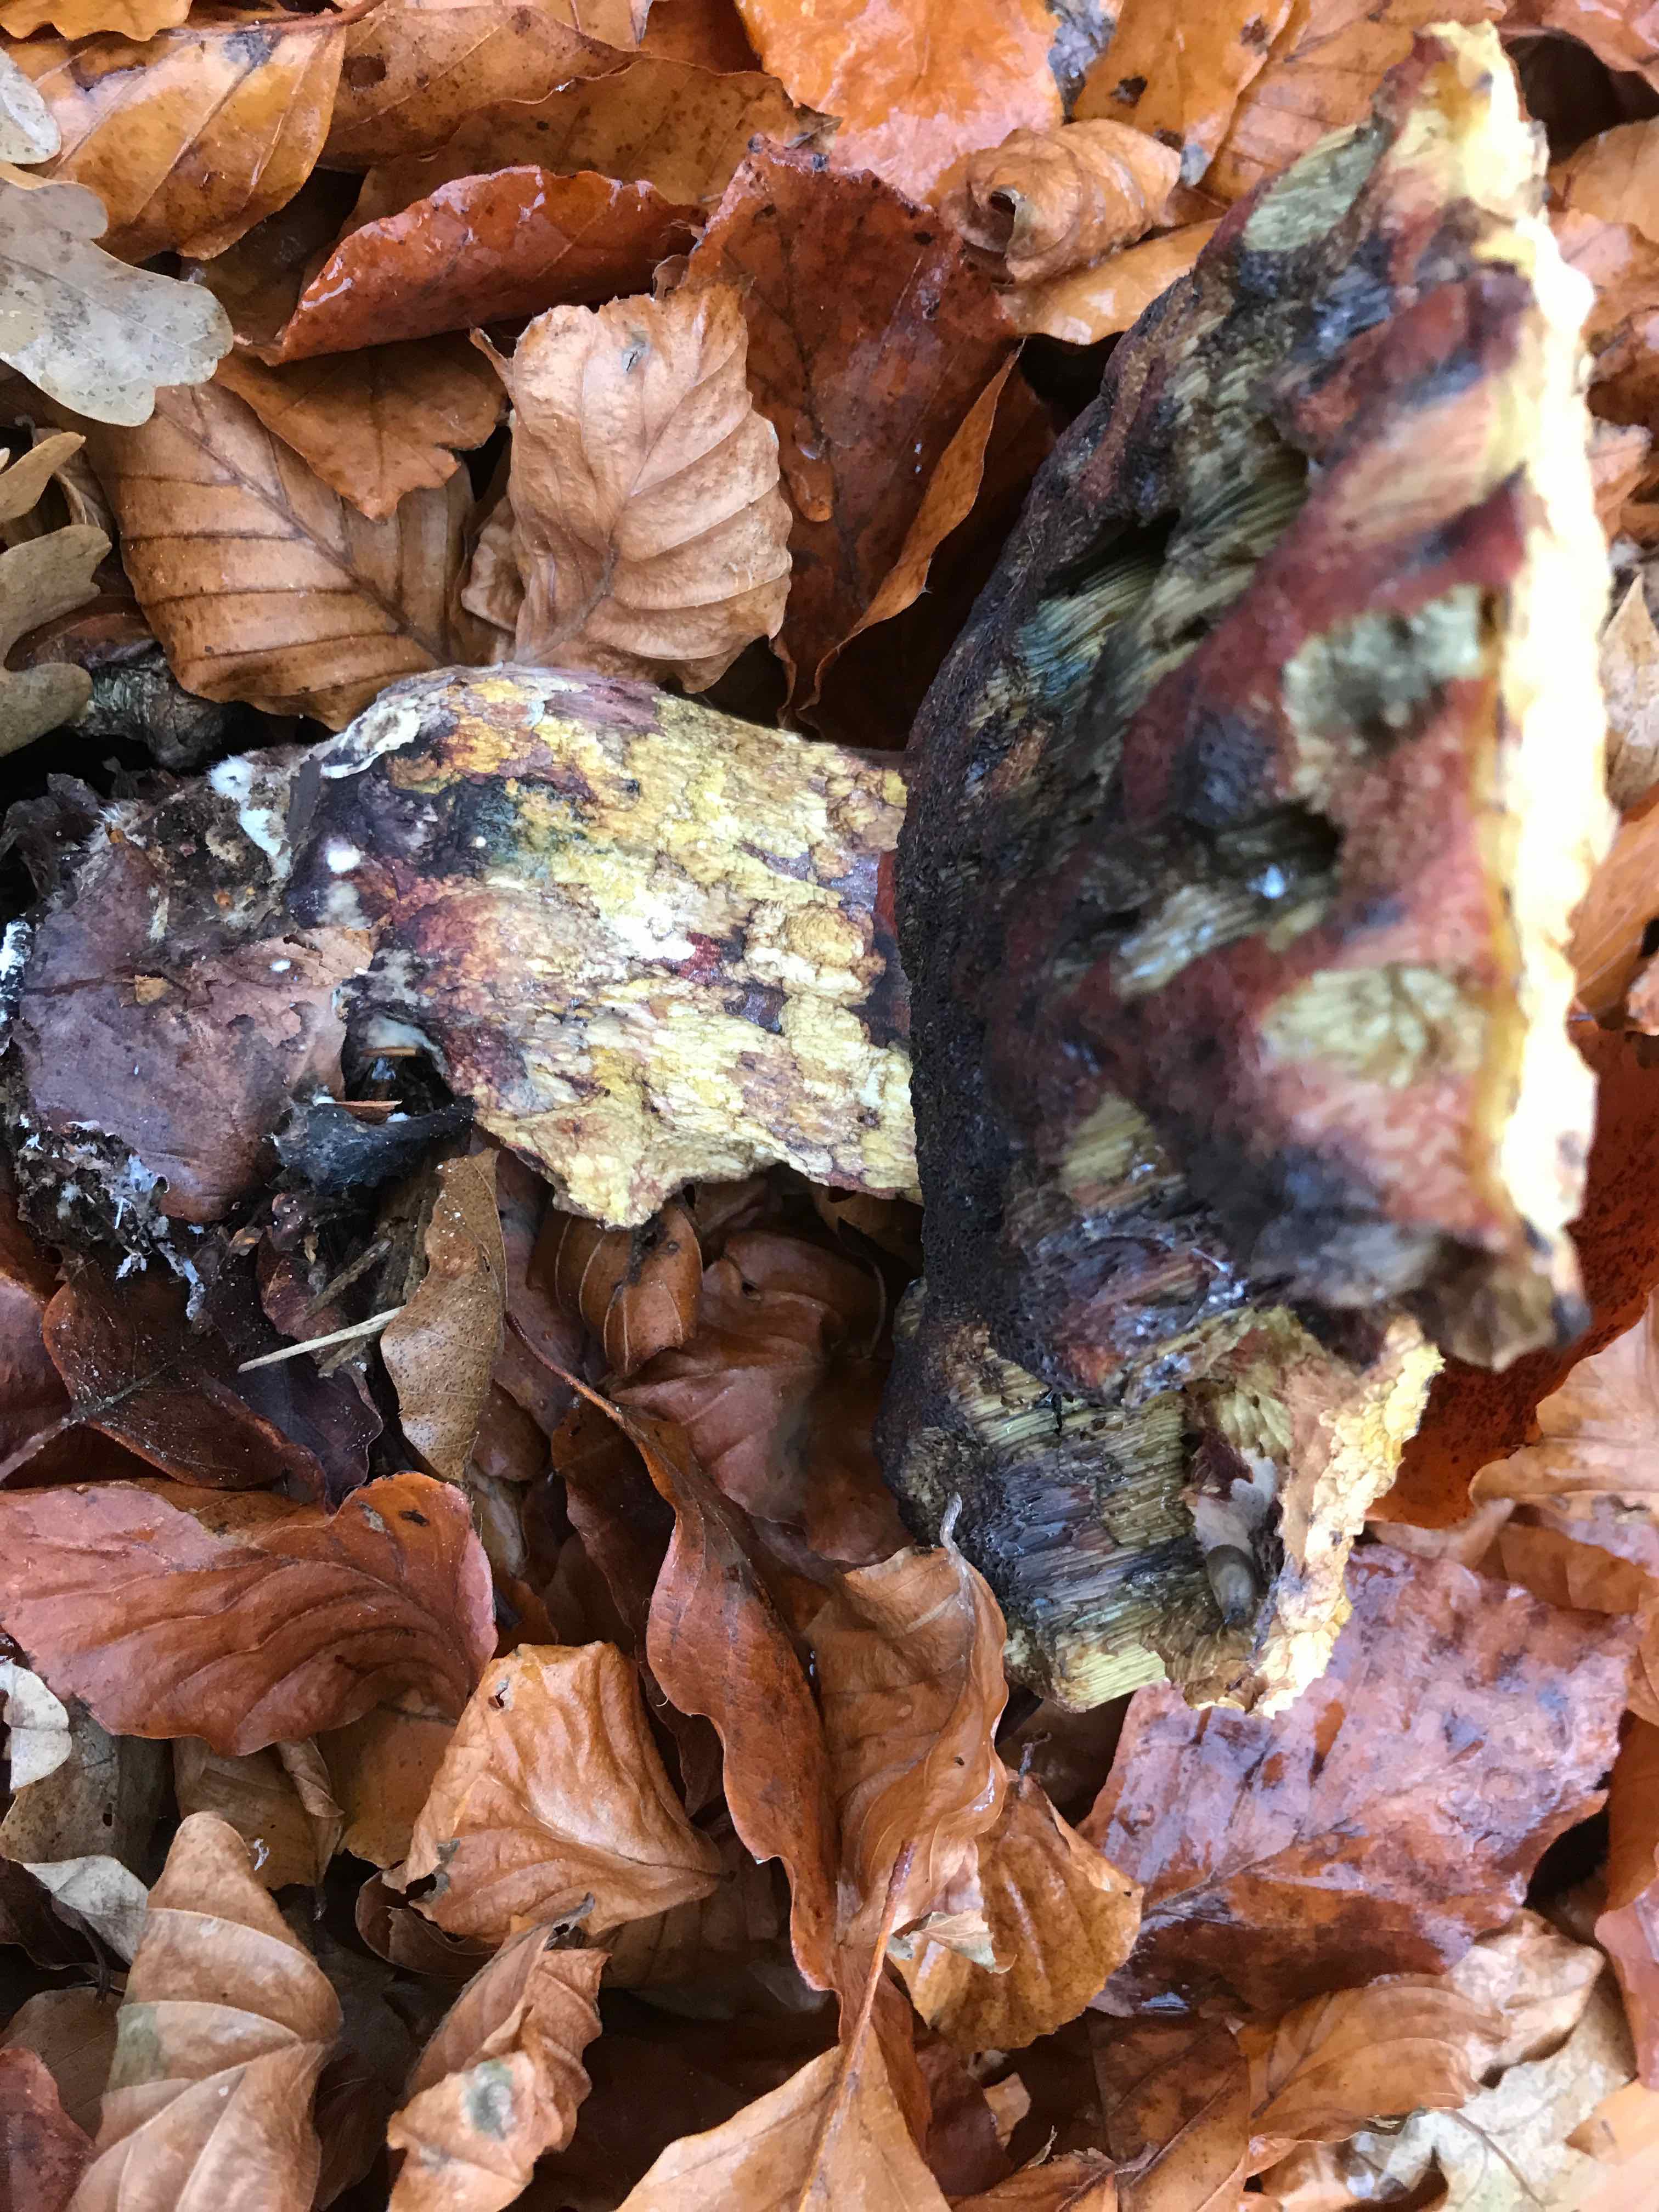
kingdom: Fungi
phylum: Basidiomycota
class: Agaricomycetes
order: Boletales
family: Boletaceae
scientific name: Boletaceae
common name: rørhatfamilien
